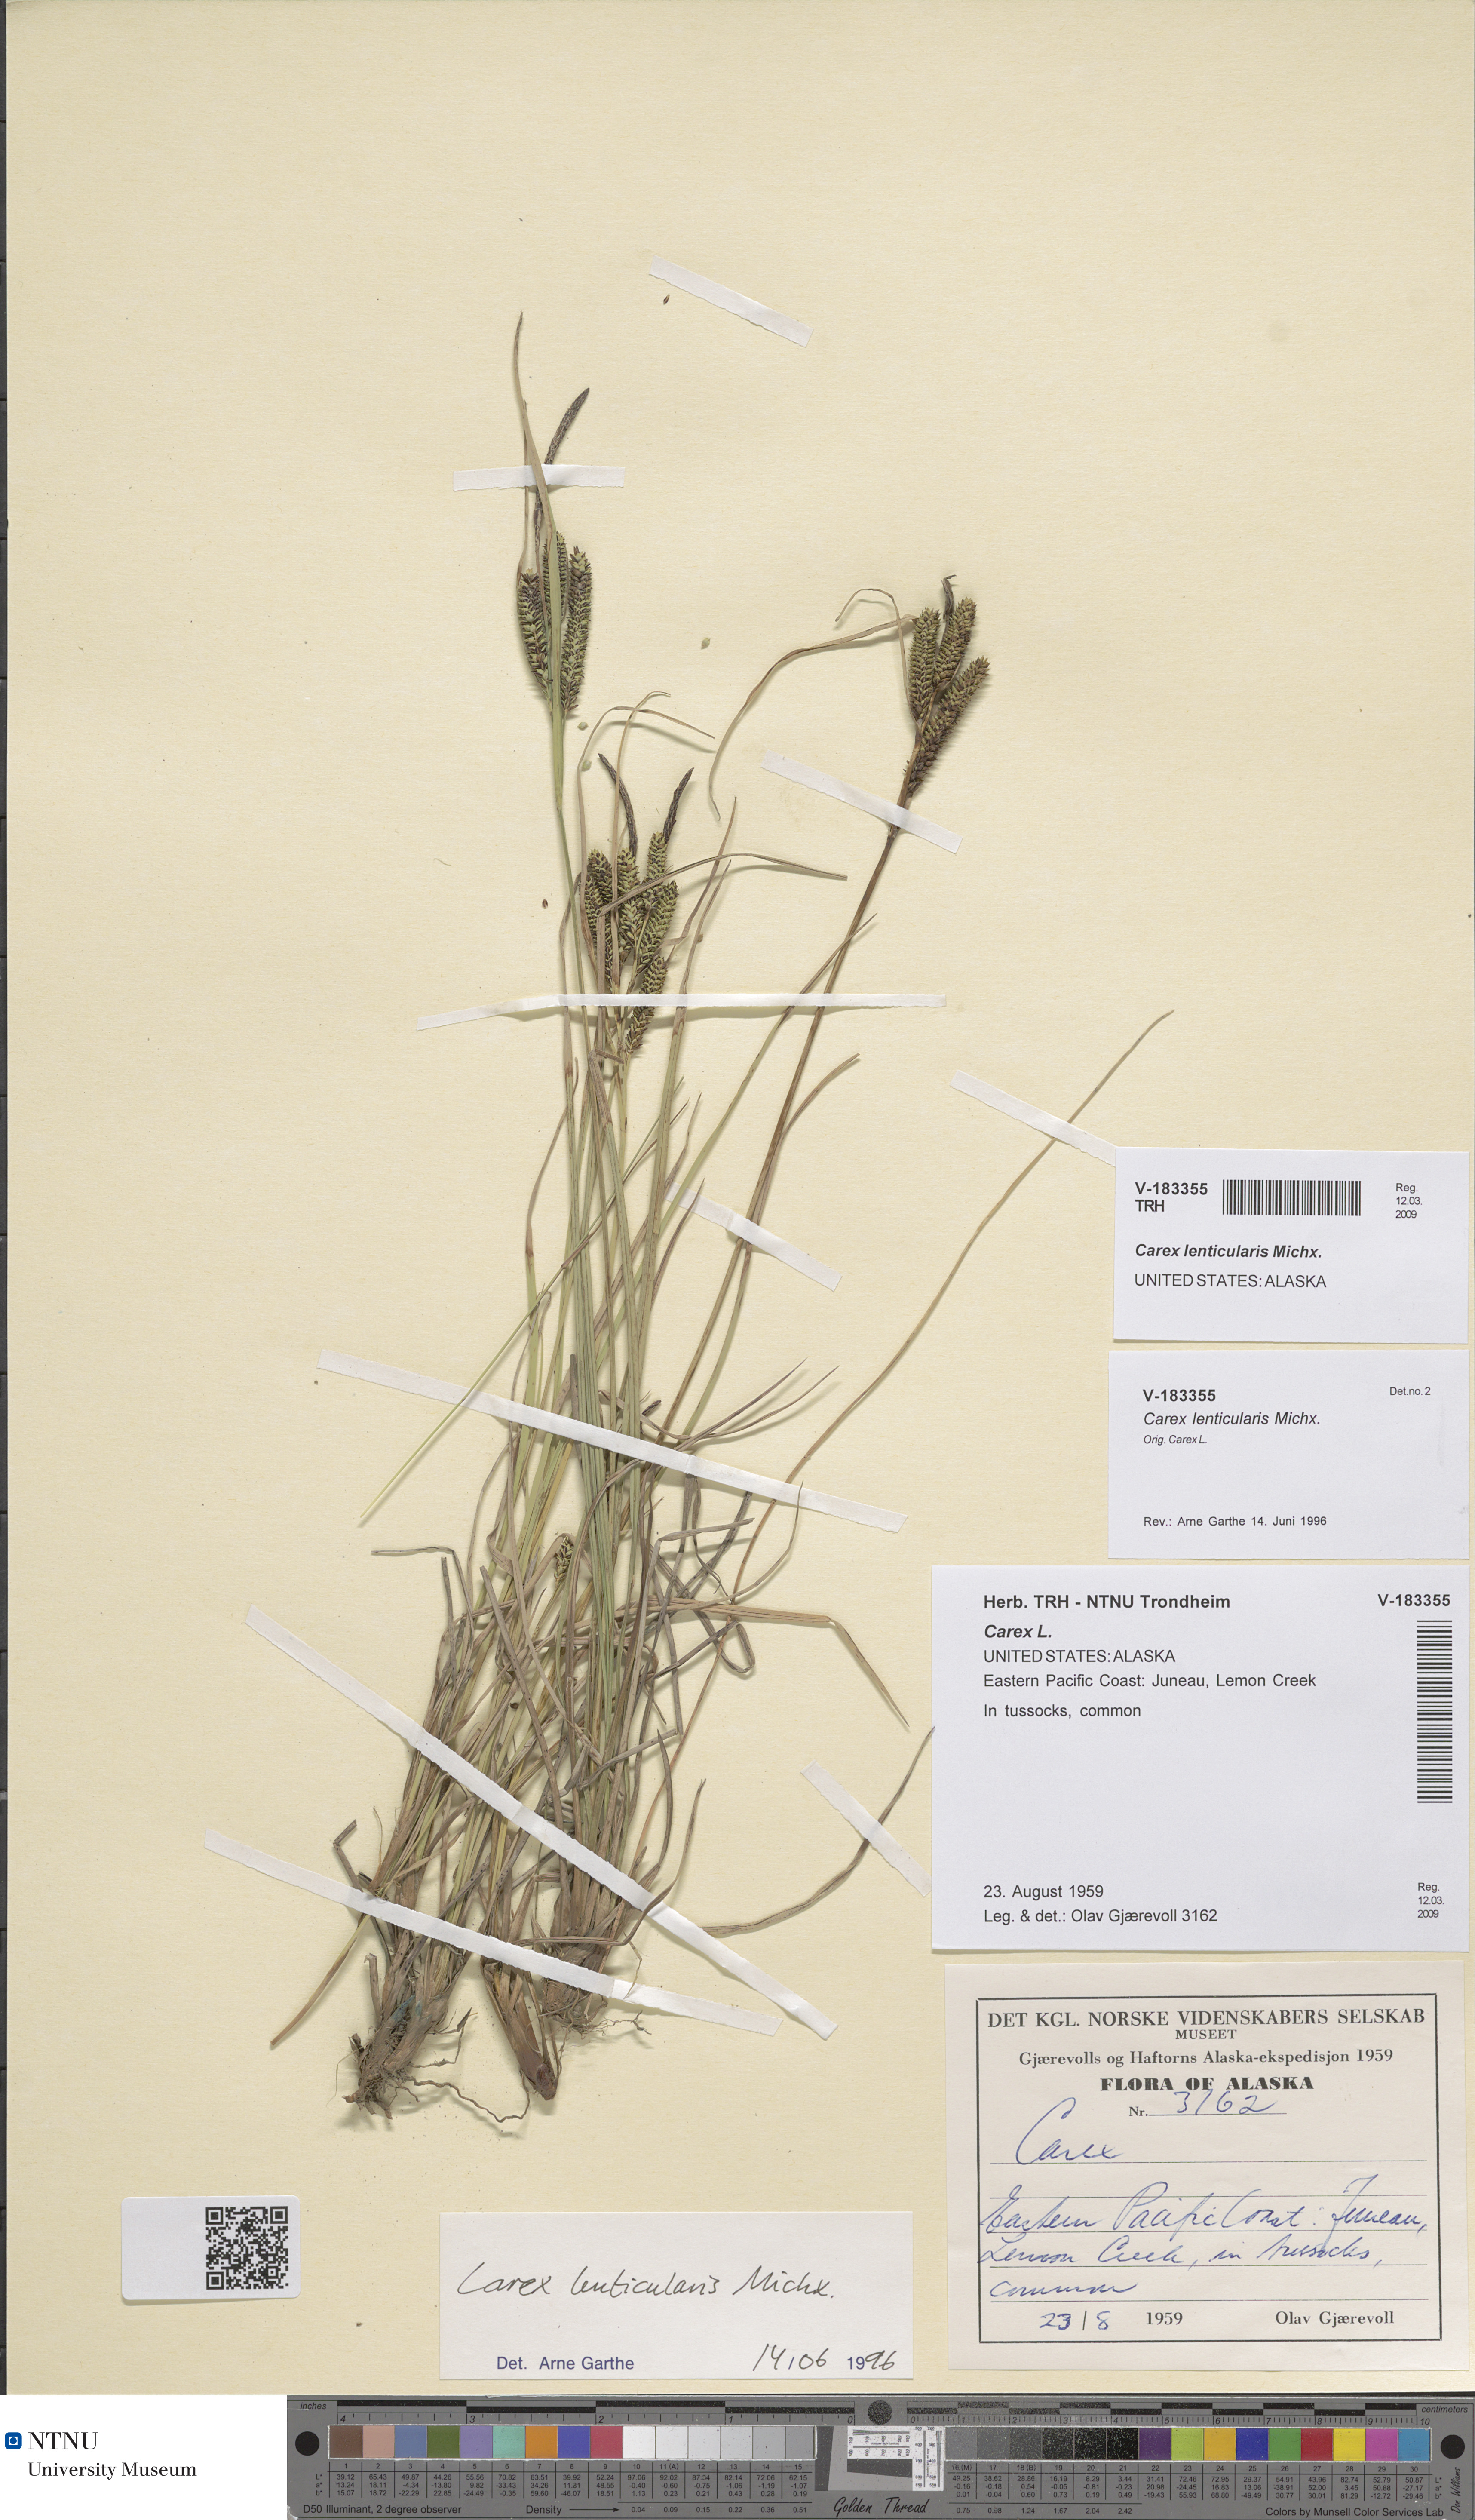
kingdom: Plantae
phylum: Tracheophyta
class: Liliopsida
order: Poales
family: Cyperaceae
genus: Carex
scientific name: Carex lenticularis
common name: Lakeshore sedge
